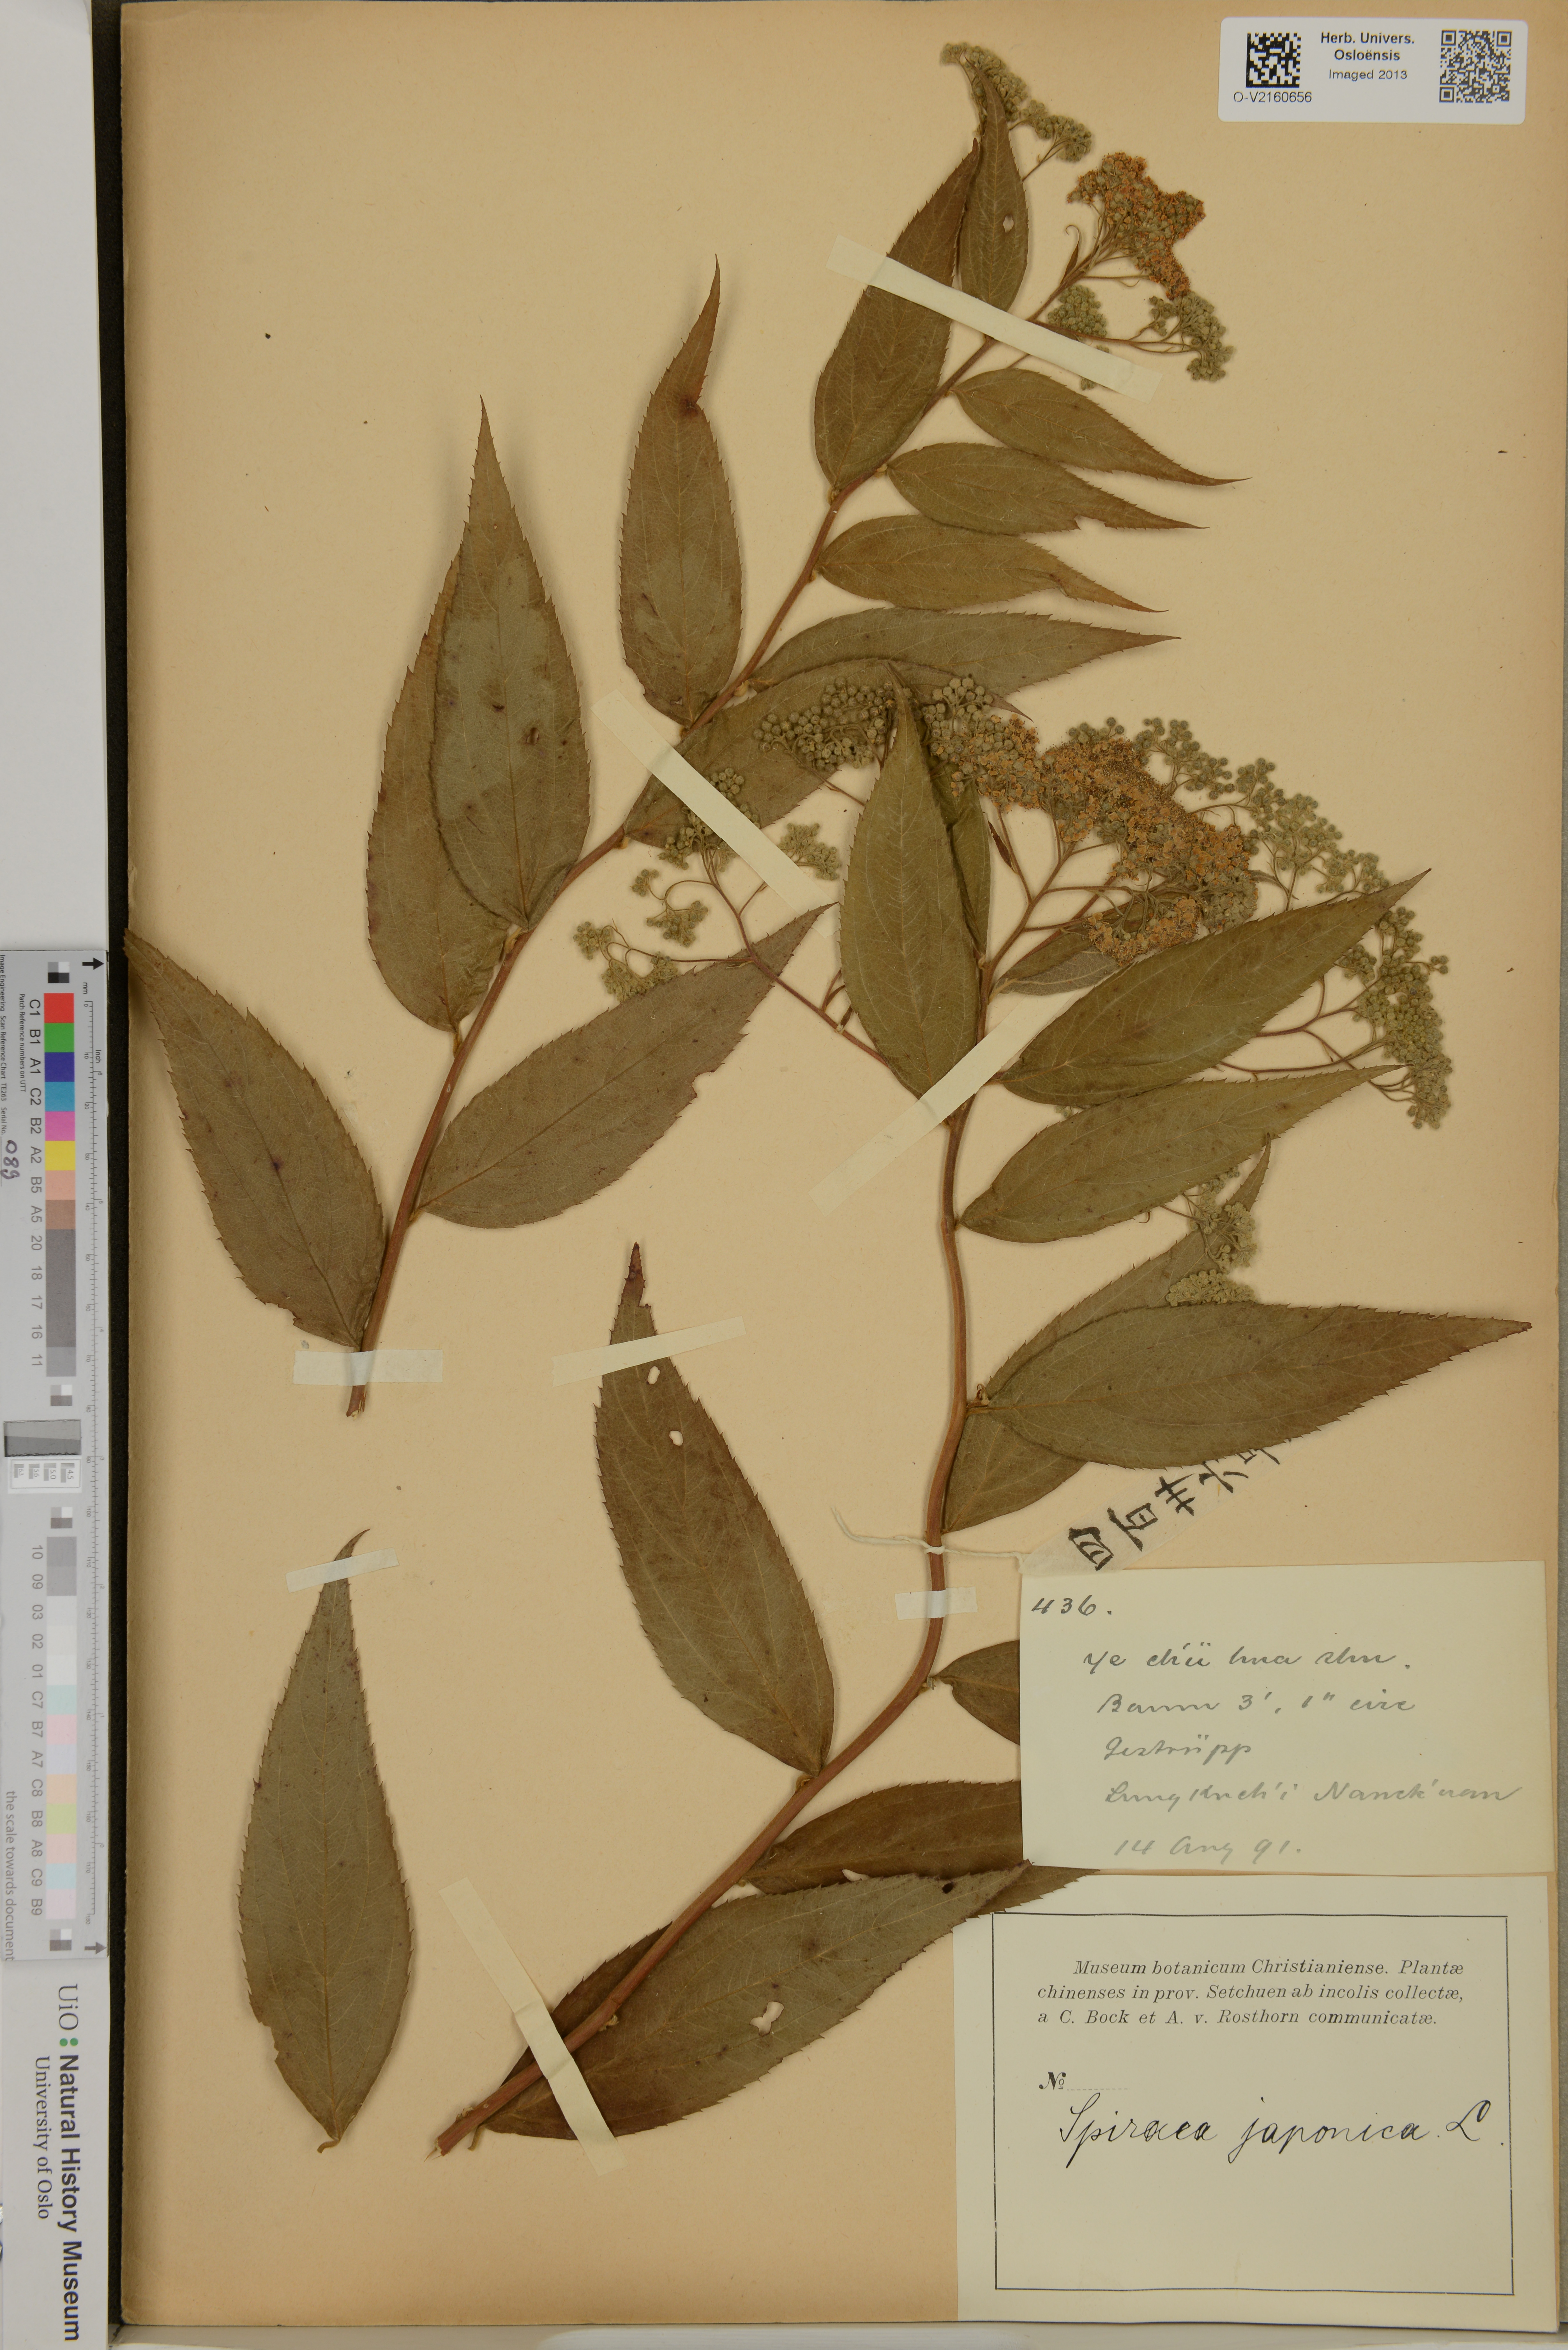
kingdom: Plantae
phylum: Tracheophyta
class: Magnoliopsida
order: Rosales
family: Rosaceae
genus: Spiraea
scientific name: Spiraea japonica
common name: Japanese spiraea
